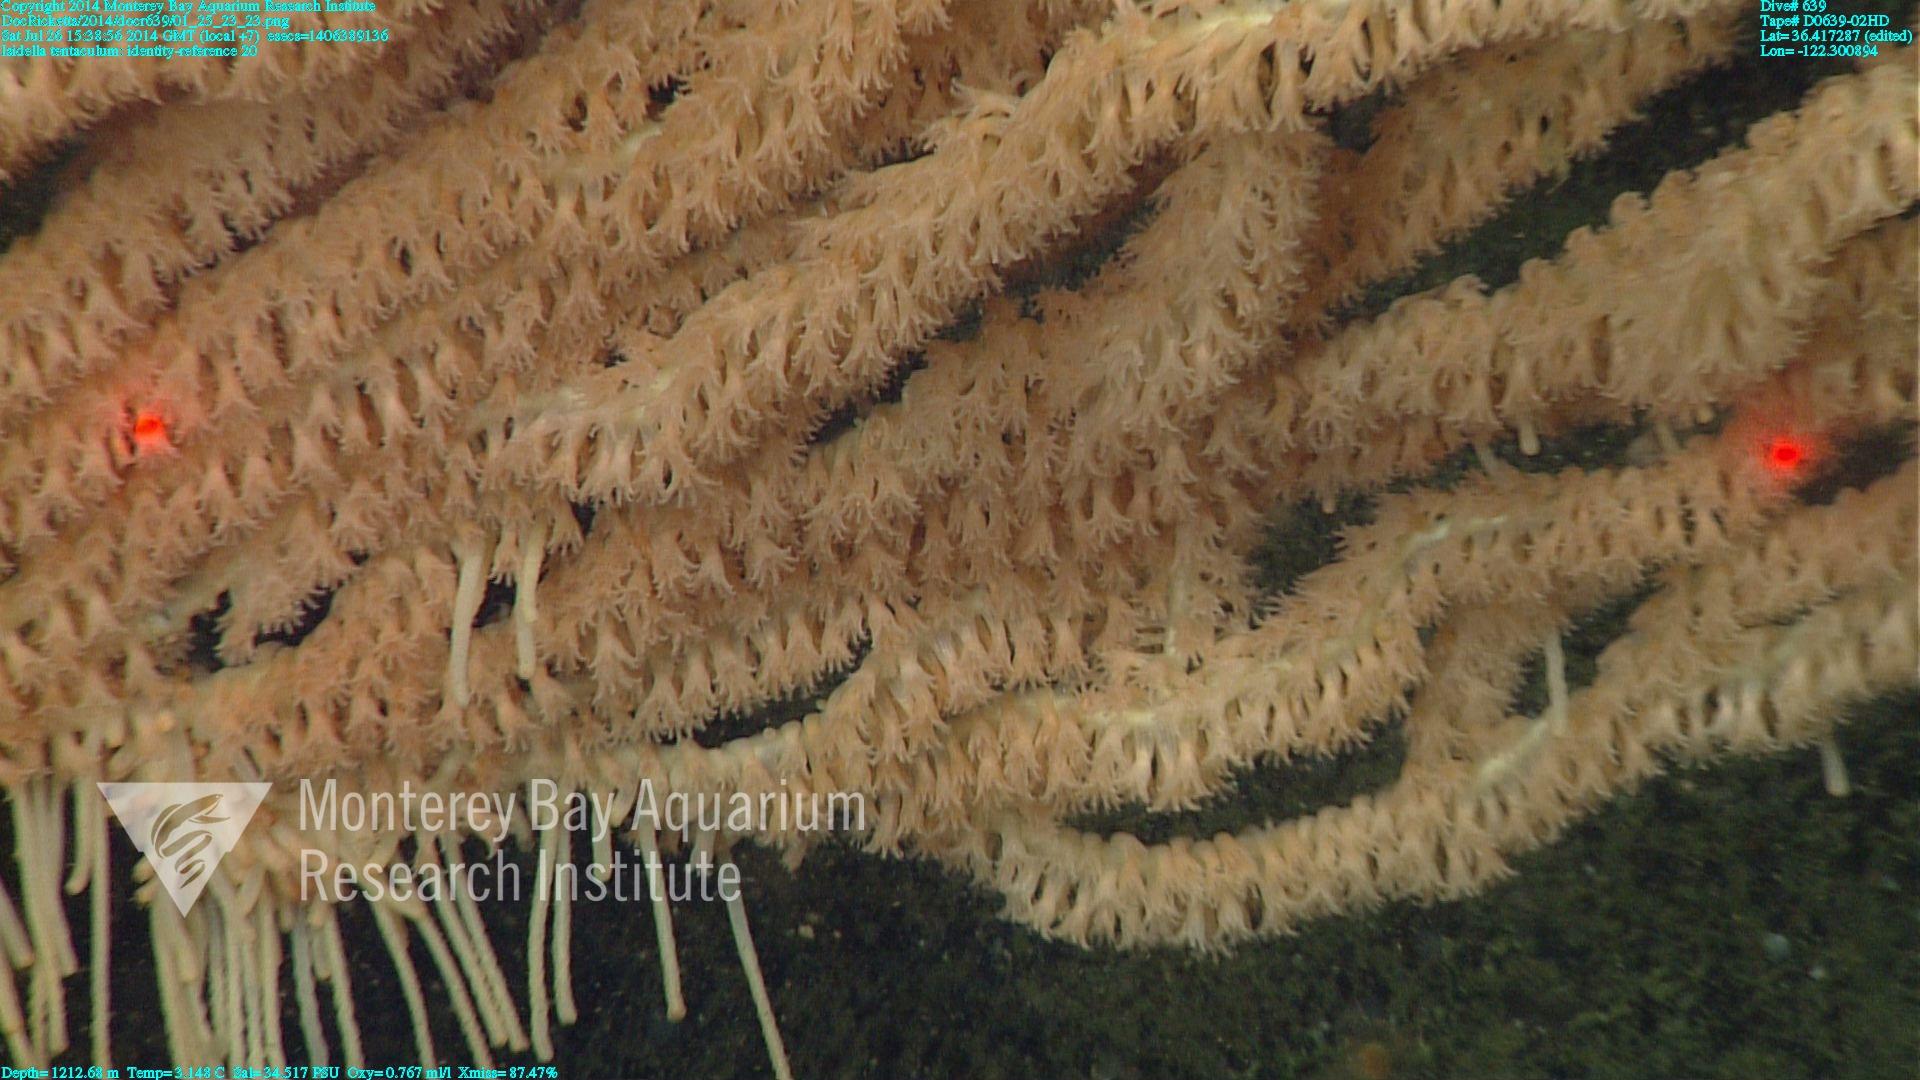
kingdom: Animalia
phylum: Cnidaria
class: Anthozoa
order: Scleralcyonacea
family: Keratoisididae
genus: Isidella
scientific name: Isidella tentaculum
